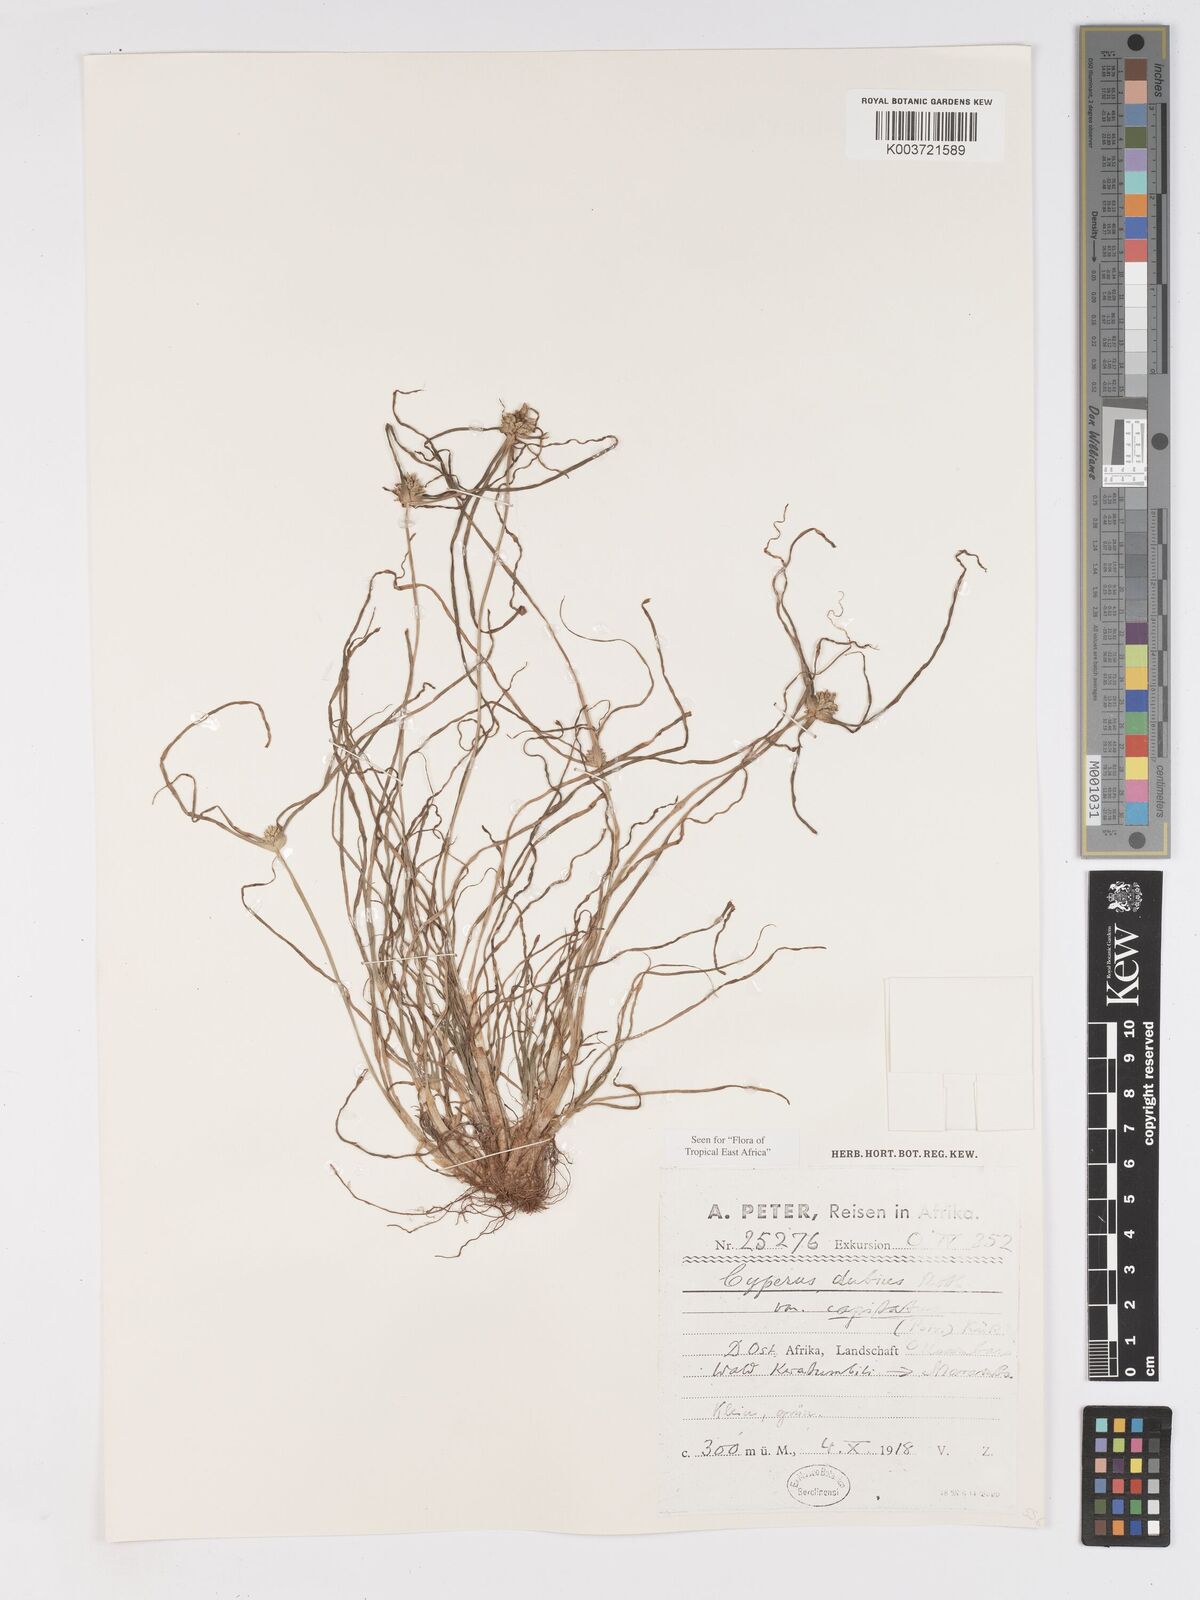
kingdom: Plantae
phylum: Tracheophyta
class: Liliopsida
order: Poales
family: Cyperaceae
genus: Cyperus
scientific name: Cyperus dubius
